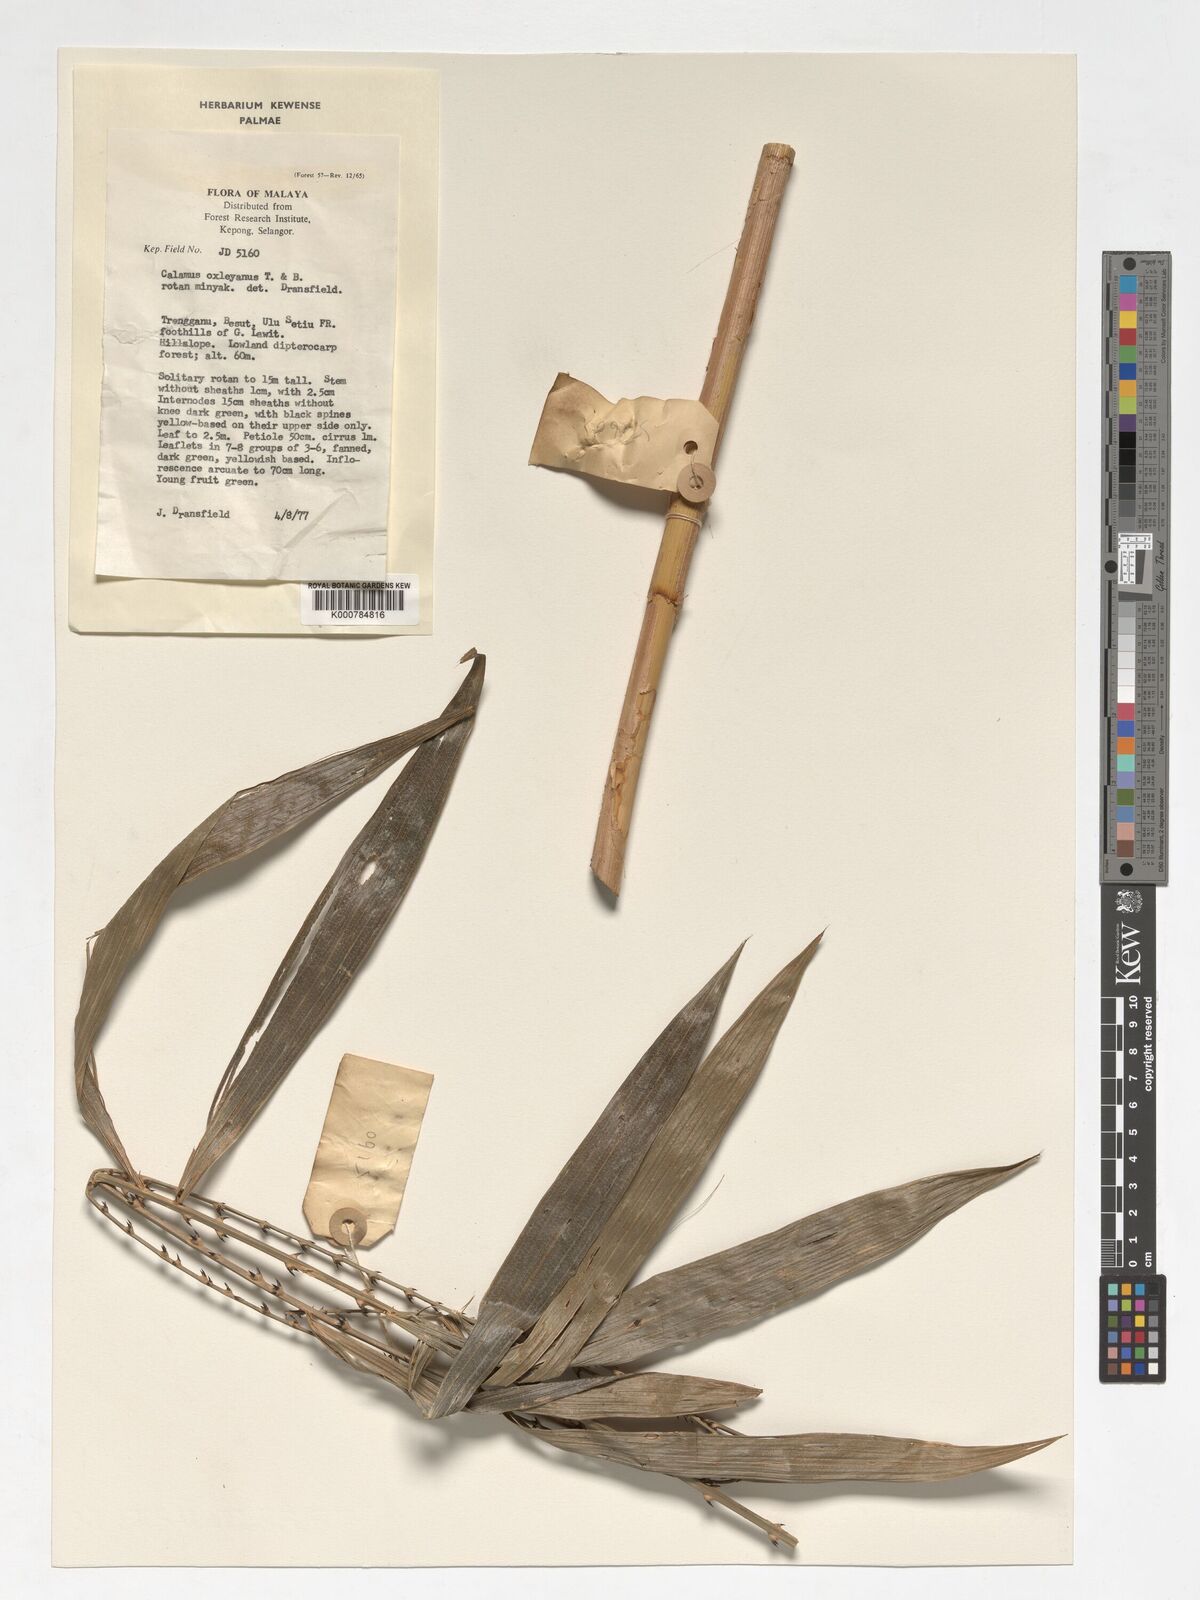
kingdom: Plantae
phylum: Tracheophyta
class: Liliopsida
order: Arecales
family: Arecaceae
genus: Calamus
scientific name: Calamus oxleyanus
